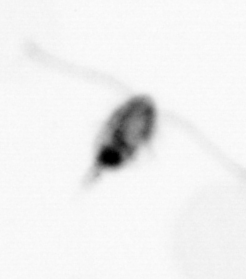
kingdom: Animalia
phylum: Arthropoda
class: Copepoda
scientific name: Copepoda
